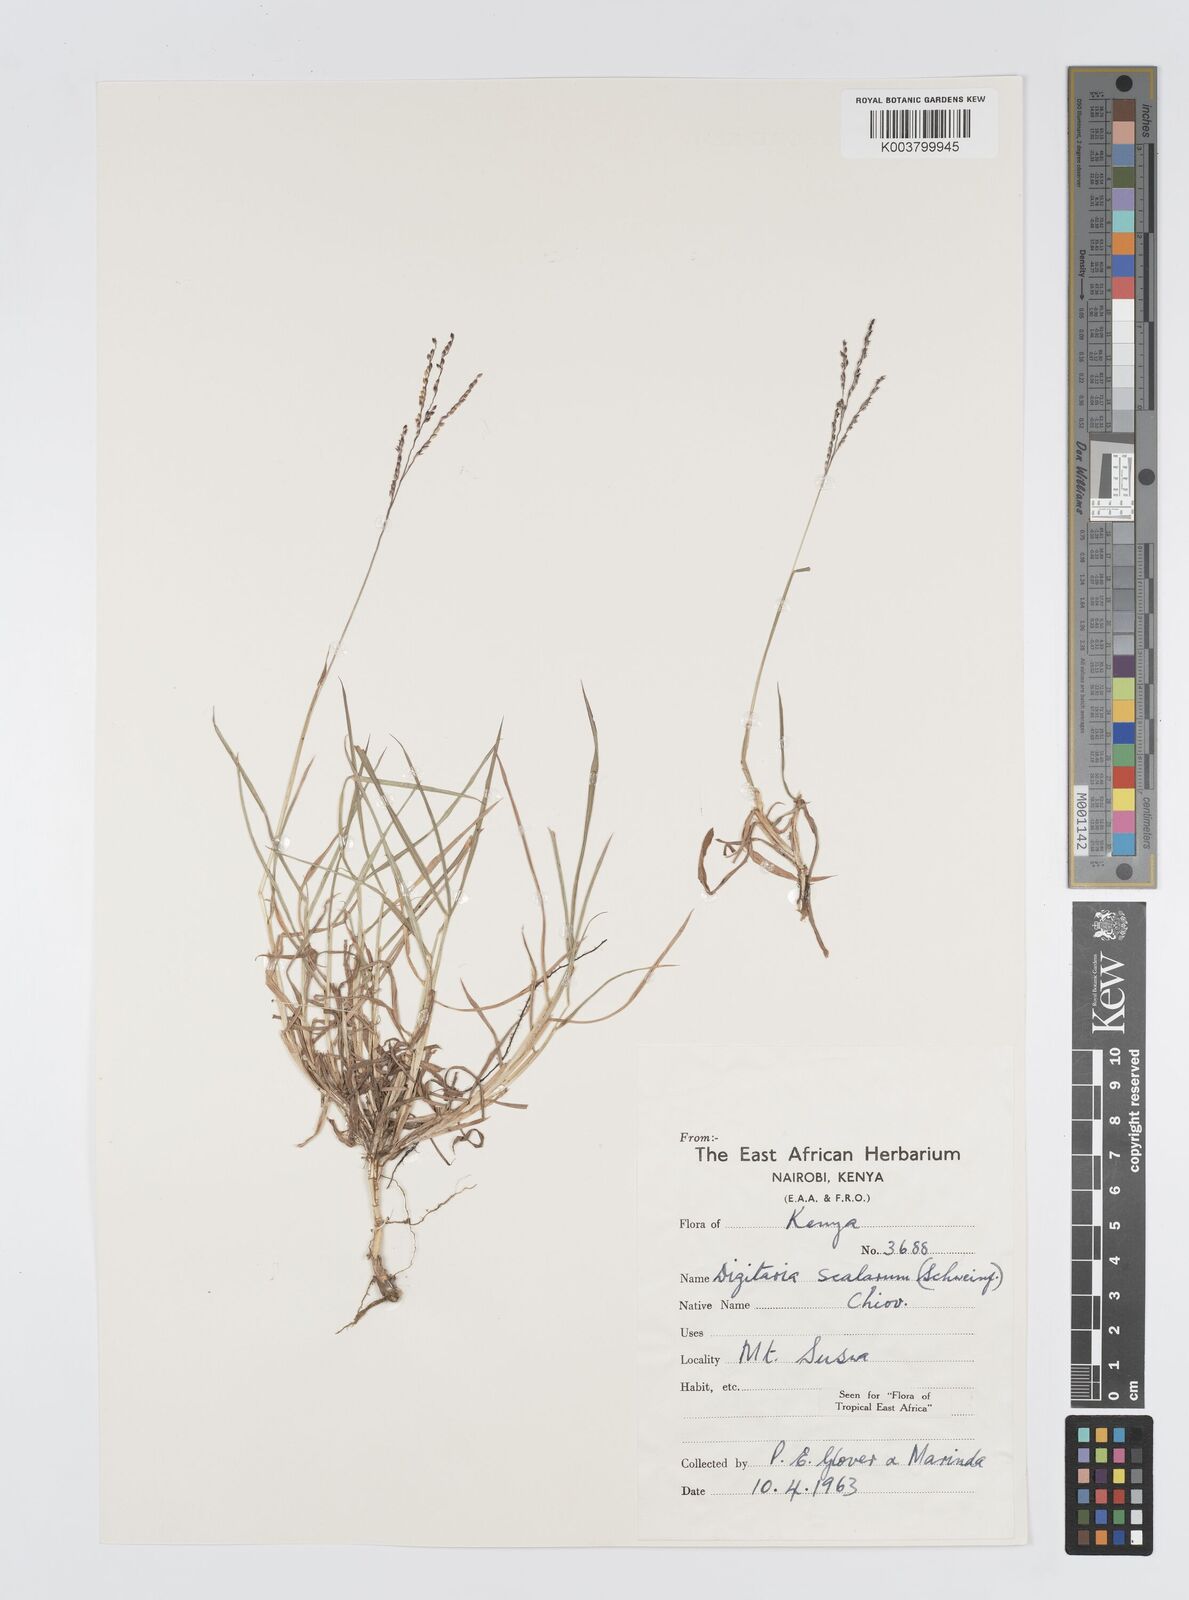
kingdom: Plantae
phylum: Tracheophyta
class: Liliopsida
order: Poales
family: Poaceae
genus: Digitaria
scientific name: Digitaria abyssinica
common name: African couchgrass
